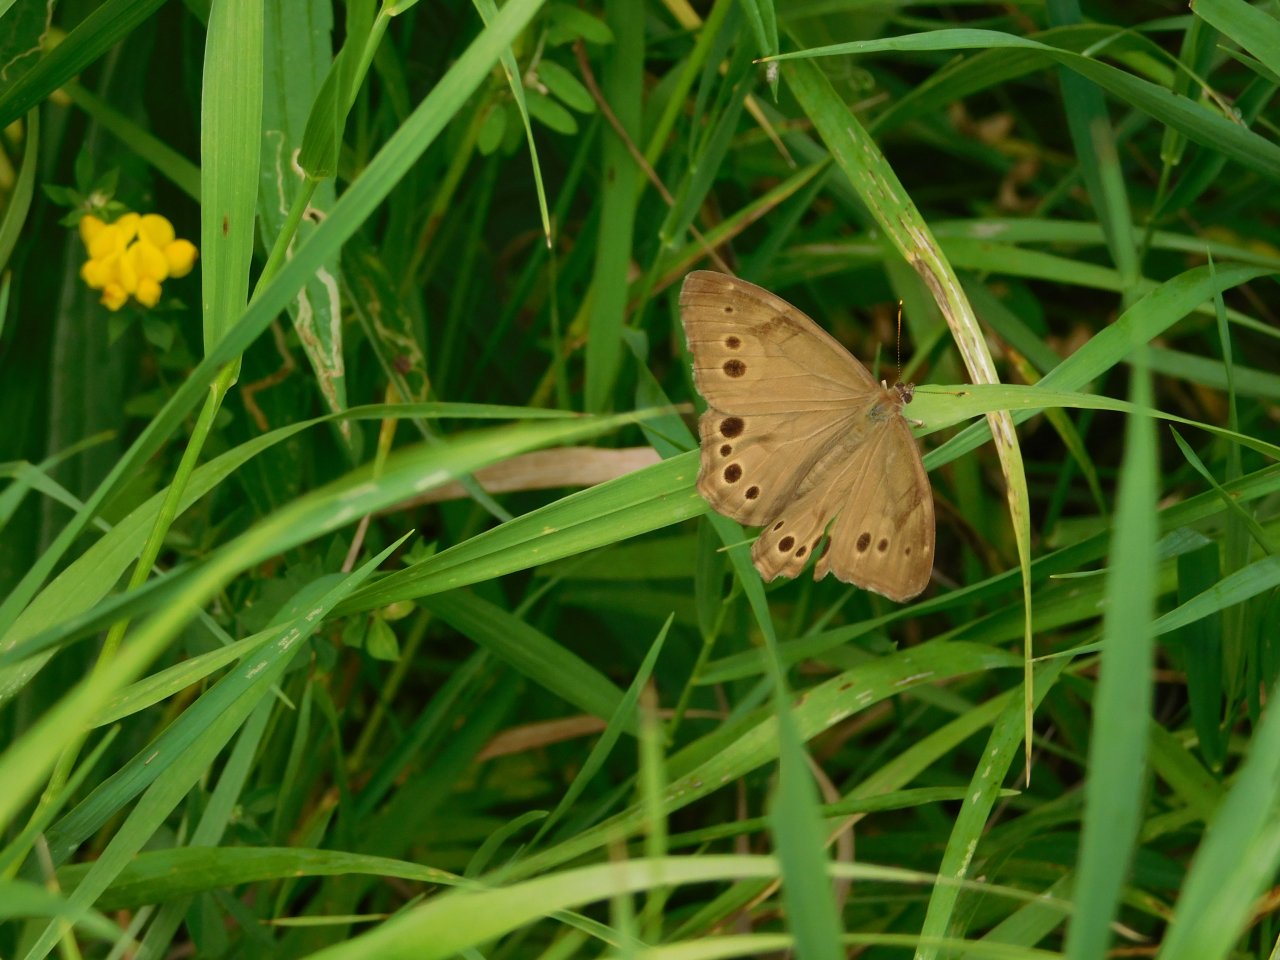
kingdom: Animalia
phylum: Arthropoda
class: Insecta
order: Lepidoptera
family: Nymphalidae
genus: Lethe
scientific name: Lethe anthedon
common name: Northern Pearly-Eye
